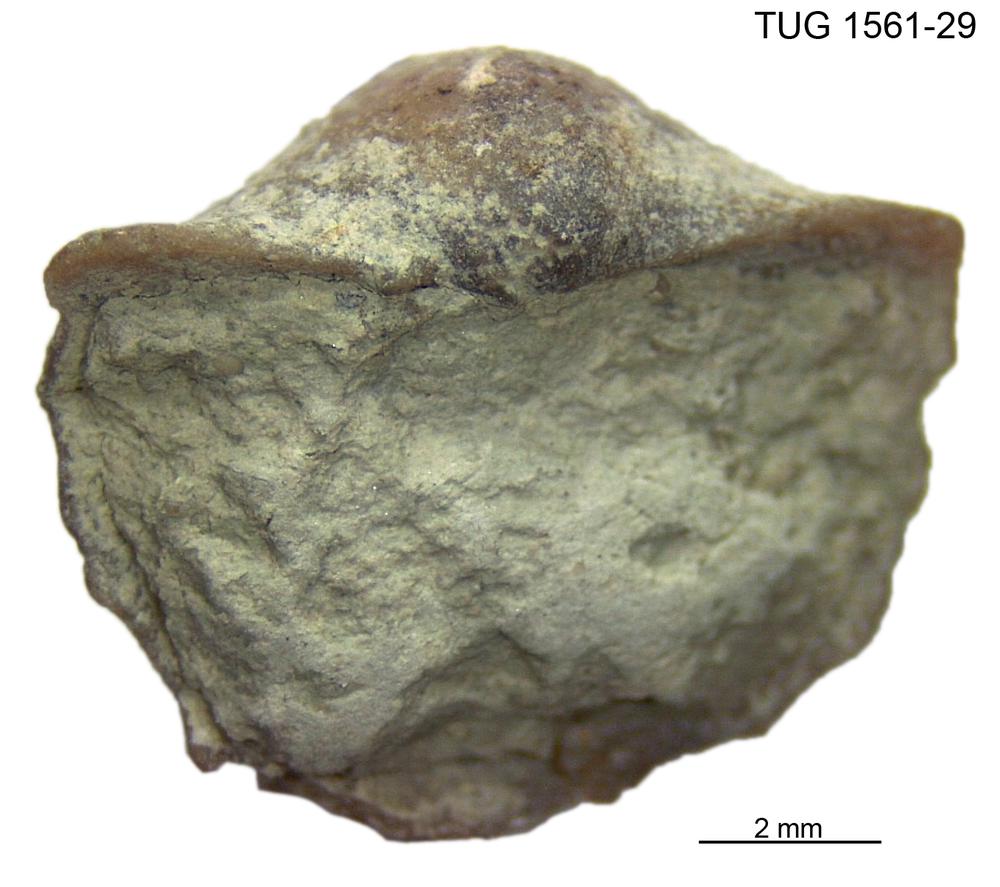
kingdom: Animalia
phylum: Brachiopoda
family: Oldhaminidae
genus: Eoplectodonta
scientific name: Eoplectodonta
